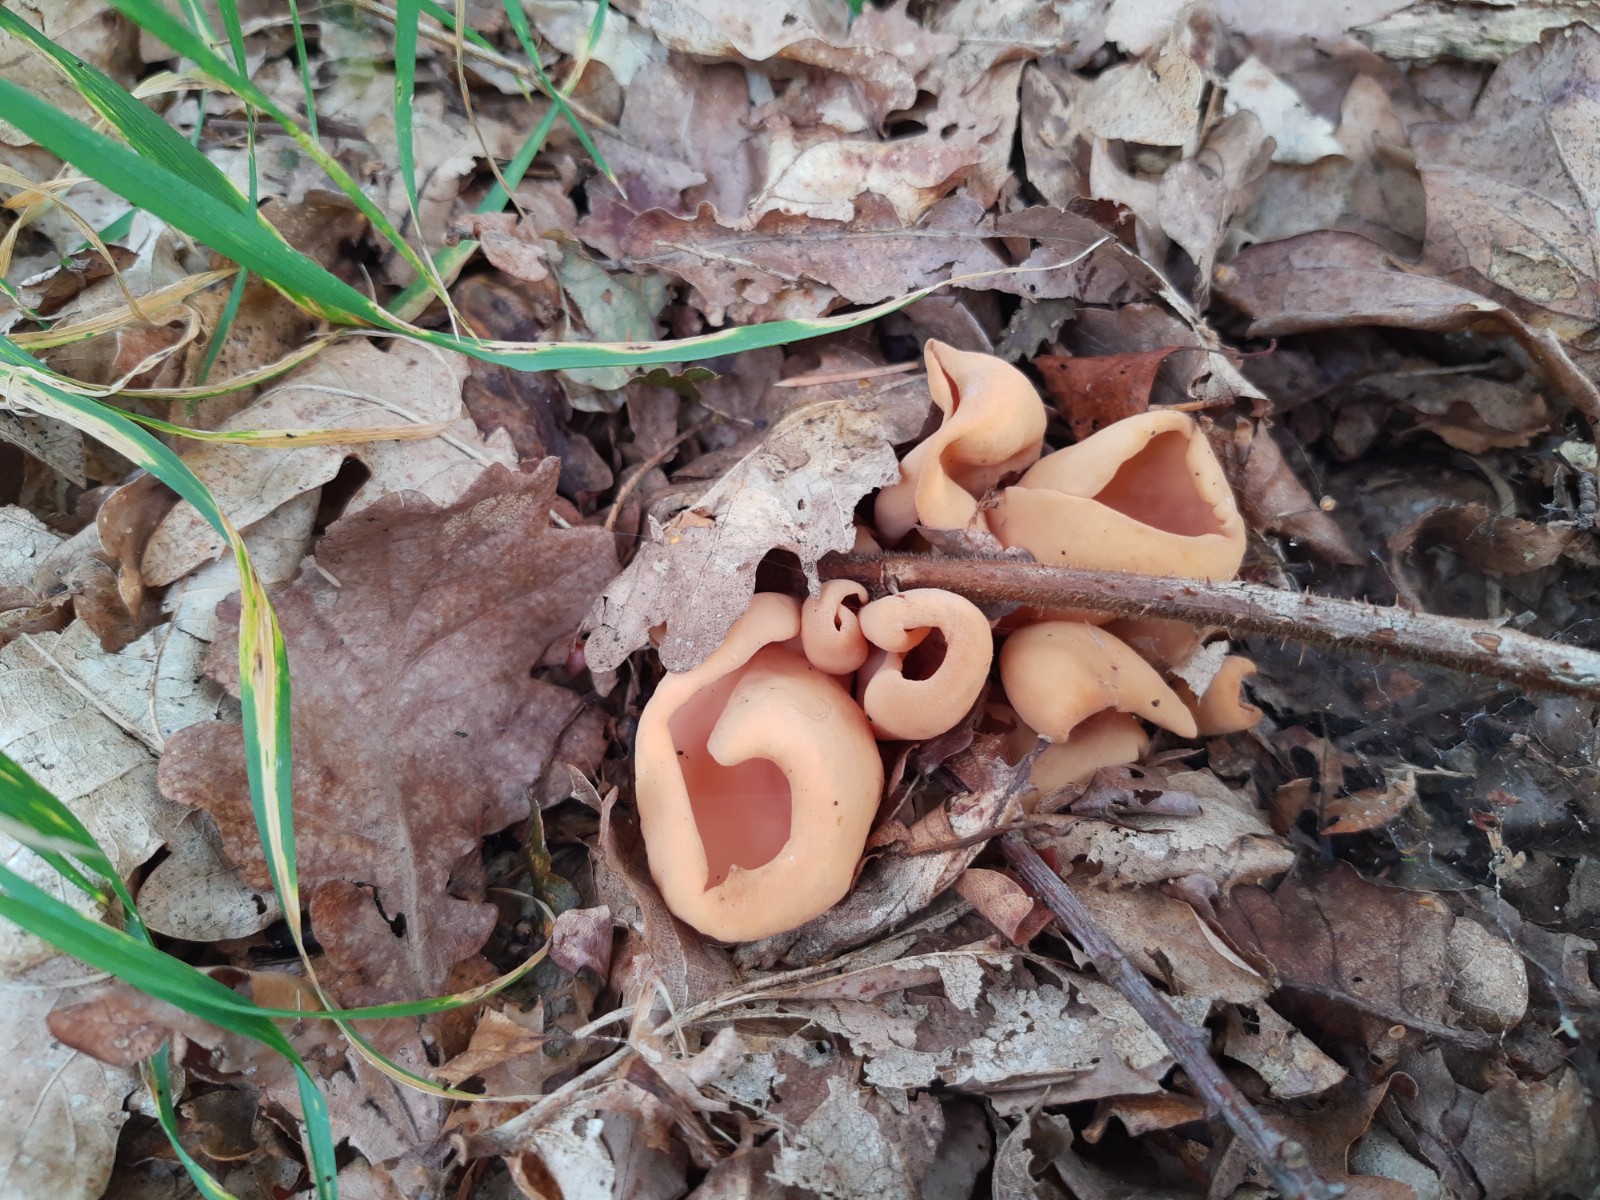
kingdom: Fungi
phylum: Ascomycota
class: Pezizomycetes
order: Pezizales
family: Otideaceae
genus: Otidea
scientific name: Otidea onotica
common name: æsel-ørebæger
